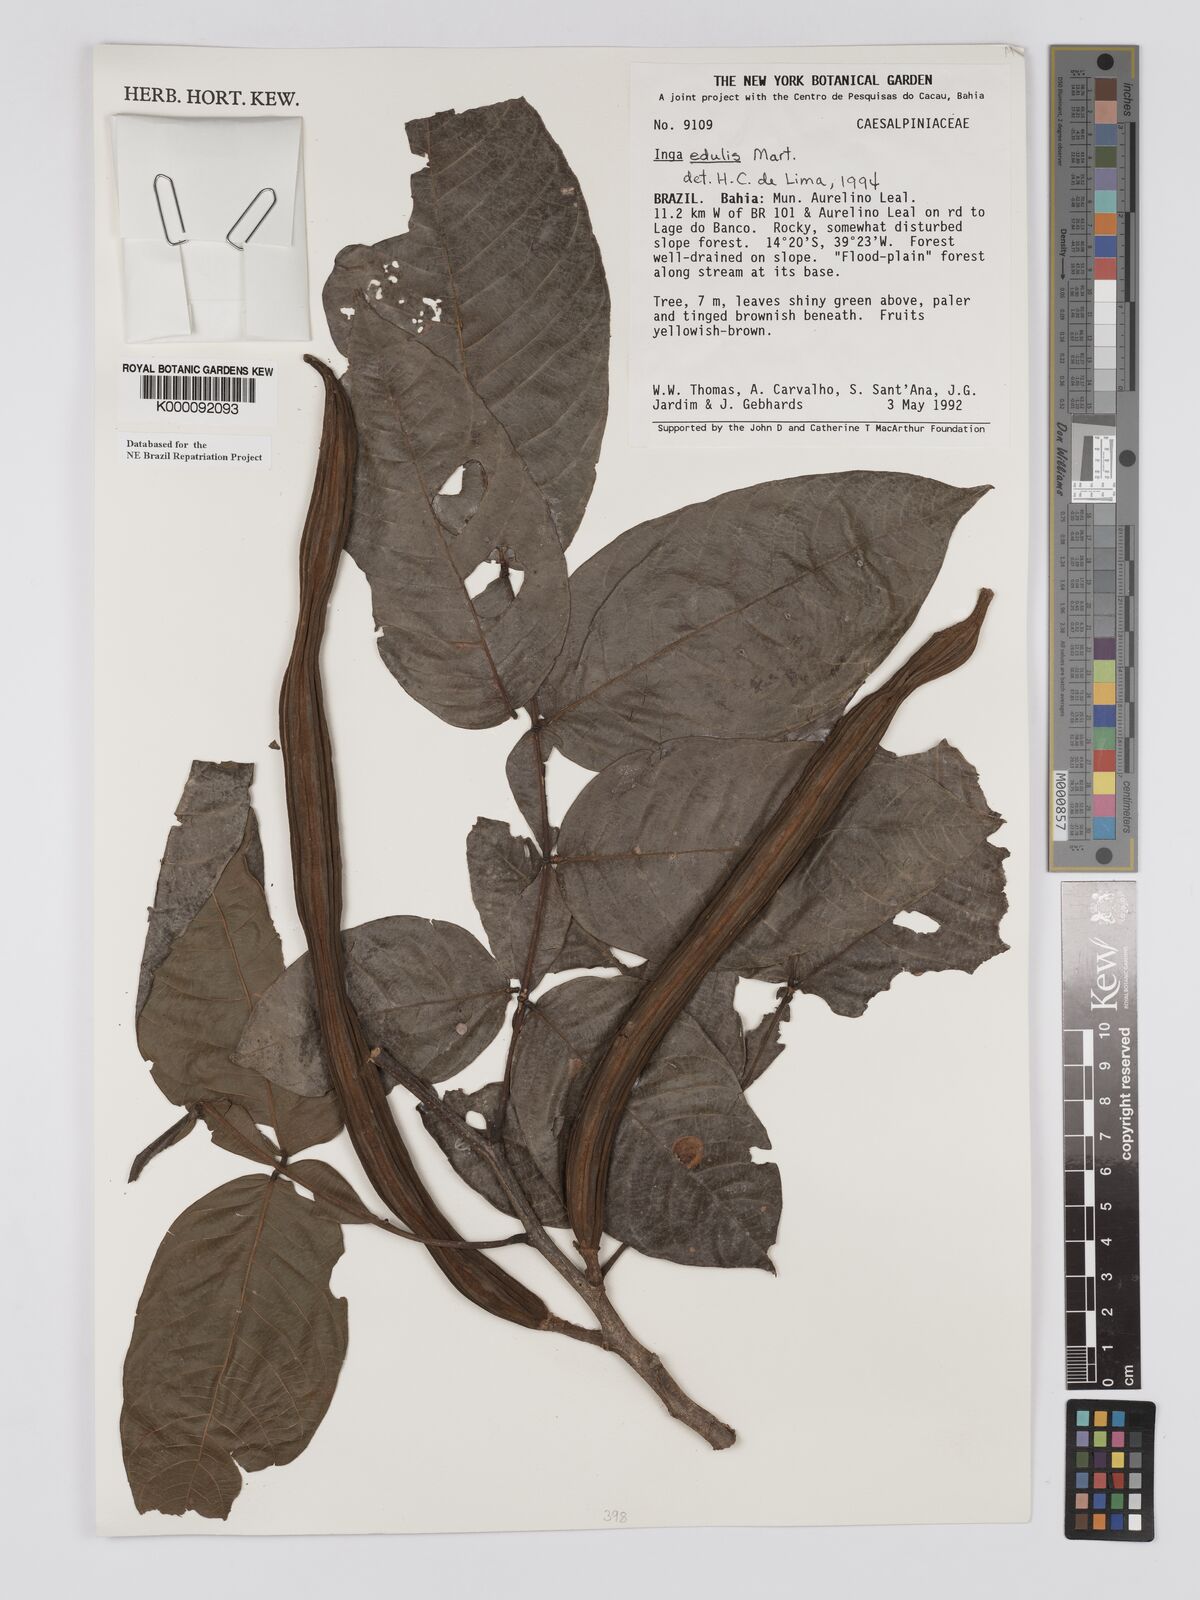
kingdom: Plantae
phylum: Tracheophyta
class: Magnoliopsida
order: Fabales
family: Fabaceae
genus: Inga
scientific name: Inga edulis
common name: Ice cream bean
